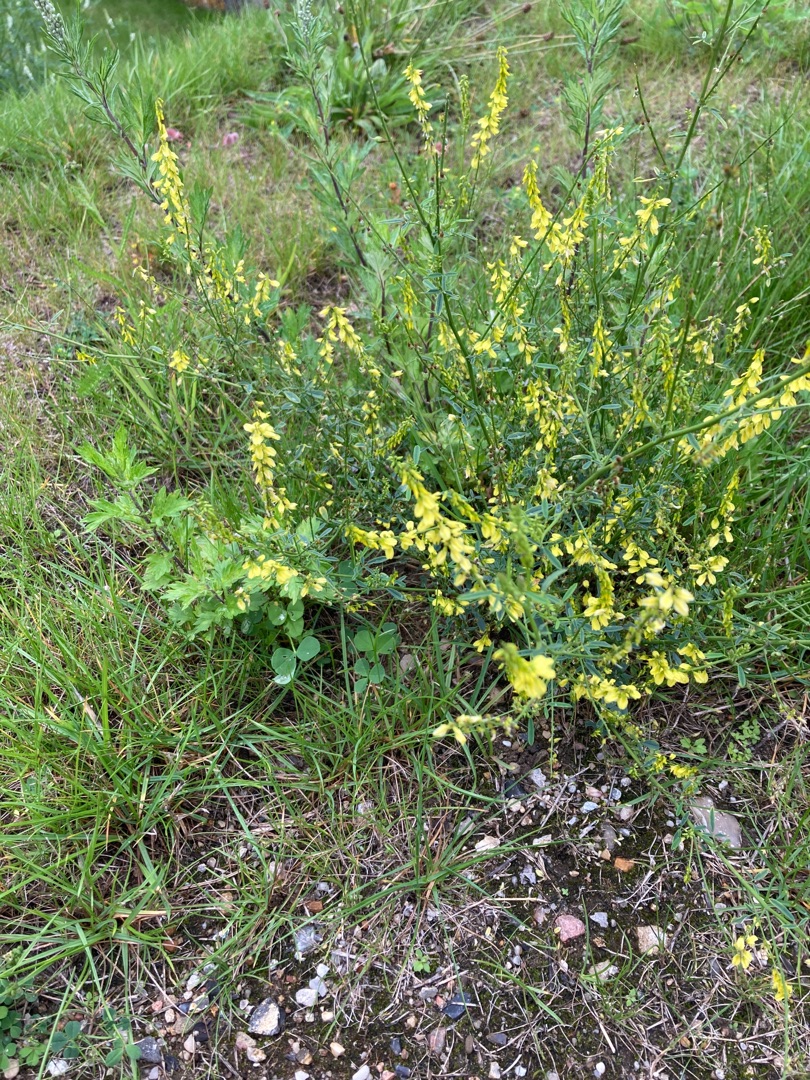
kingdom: Plantae
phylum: Tracheophyta
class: Magnoliopsida
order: Fabales
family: Fabaceae
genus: Melilotus
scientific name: Melilotus
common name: Stenkløverslægten
